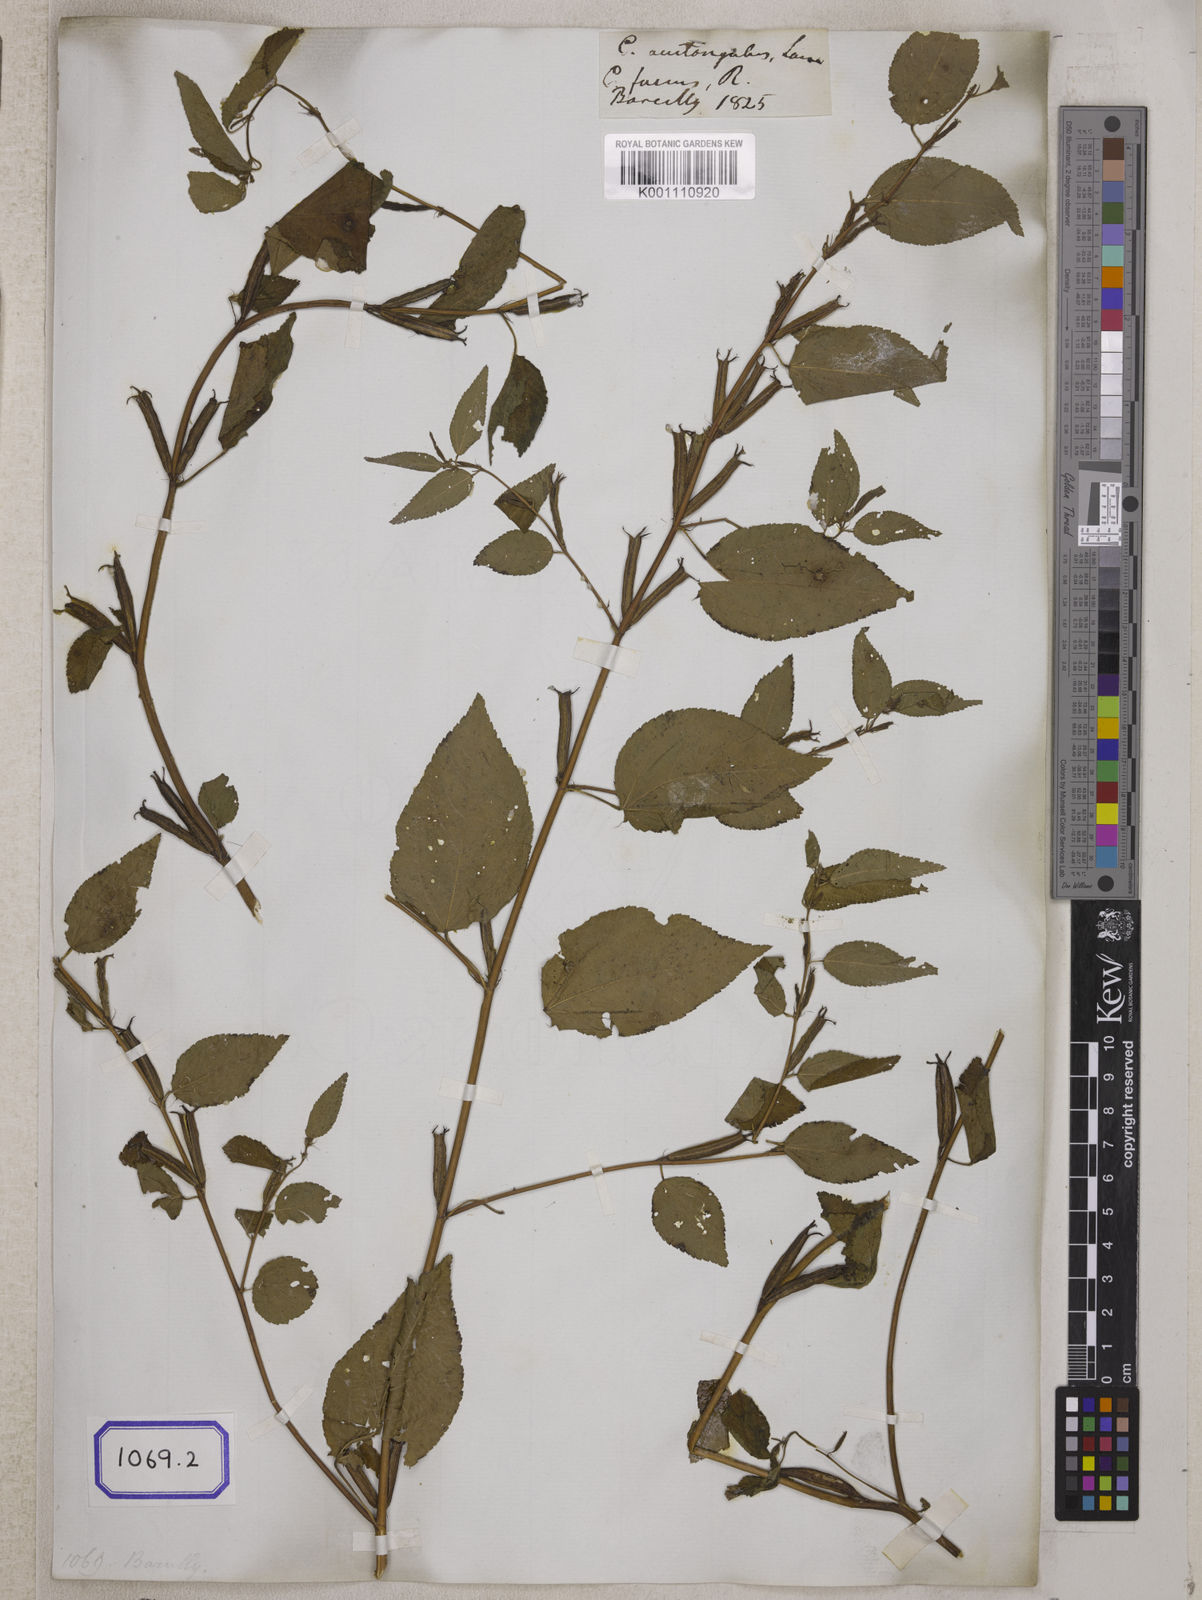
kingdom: Plantae
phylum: Tracheophyta
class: Magnoliopsida
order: Malvales
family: Malvaceae
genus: Corchorus
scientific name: Corchorus aestuans
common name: Jute
